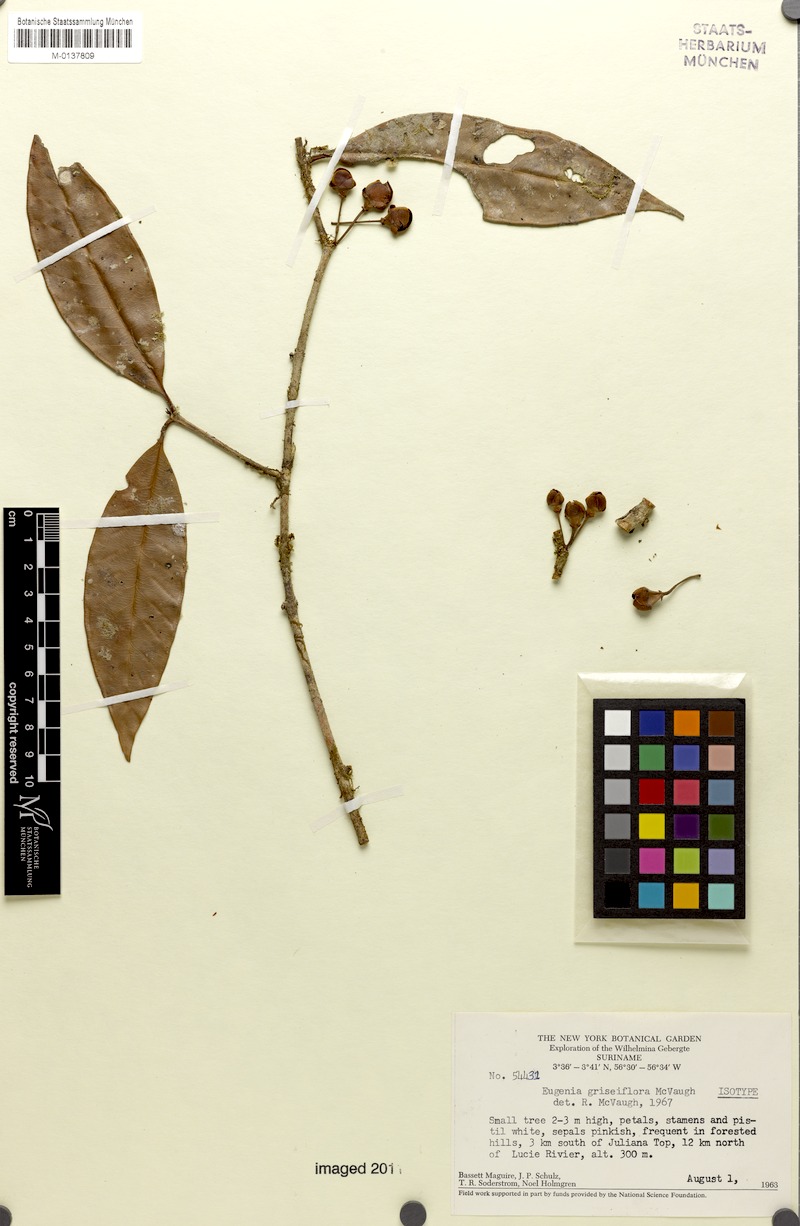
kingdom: Plantae
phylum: Tracheophyta
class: Magnoliopsida
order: Myrtales
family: Myrtaceae
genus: Eugenia
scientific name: Eugenia griseiflora
